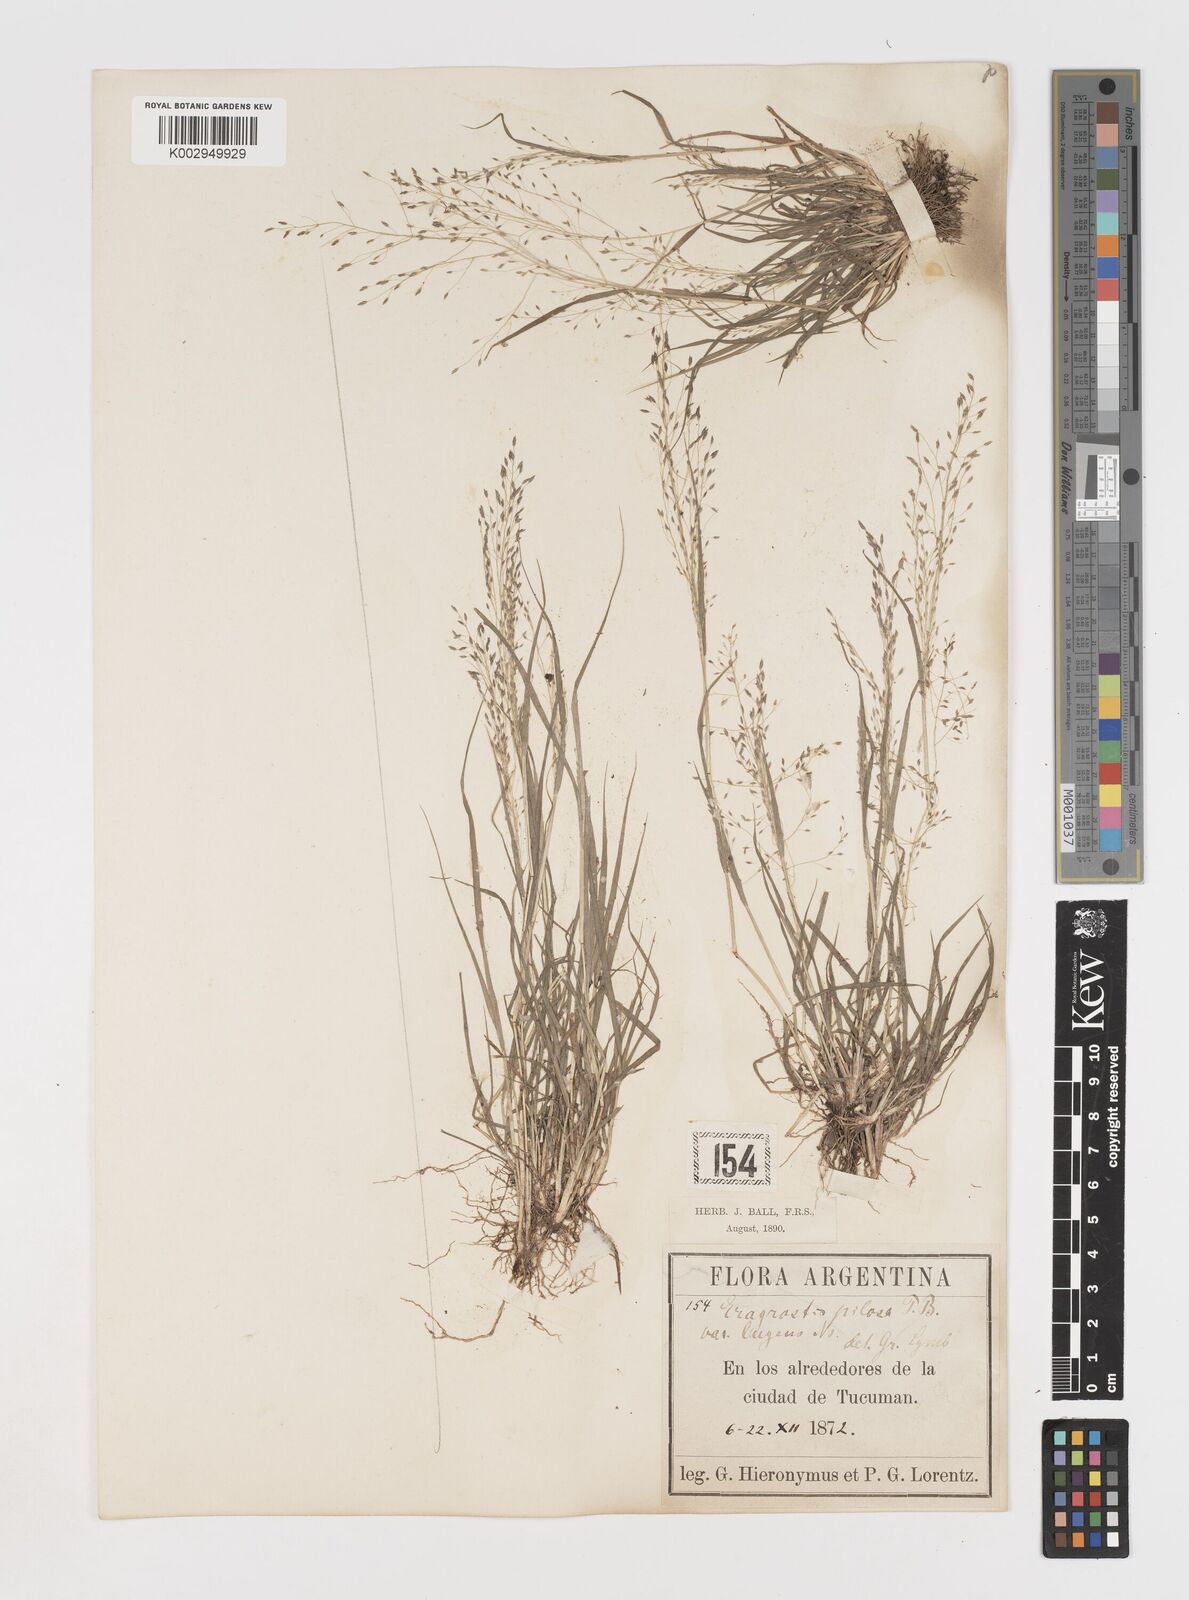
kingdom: Plantae
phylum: Tracheophyta
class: Liliopsida
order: Poales
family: Poaceae
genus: Eragrostis
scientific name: Eragrostis lugens
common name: Mourning love grass
